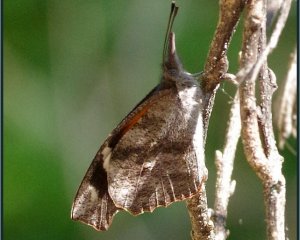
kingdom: Animalia
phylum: Arthropoda
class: Insecta
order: Lepidoptera
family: Nymphalidae
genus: Libytheana
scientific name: Libytheana carinenta
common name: American Snout
